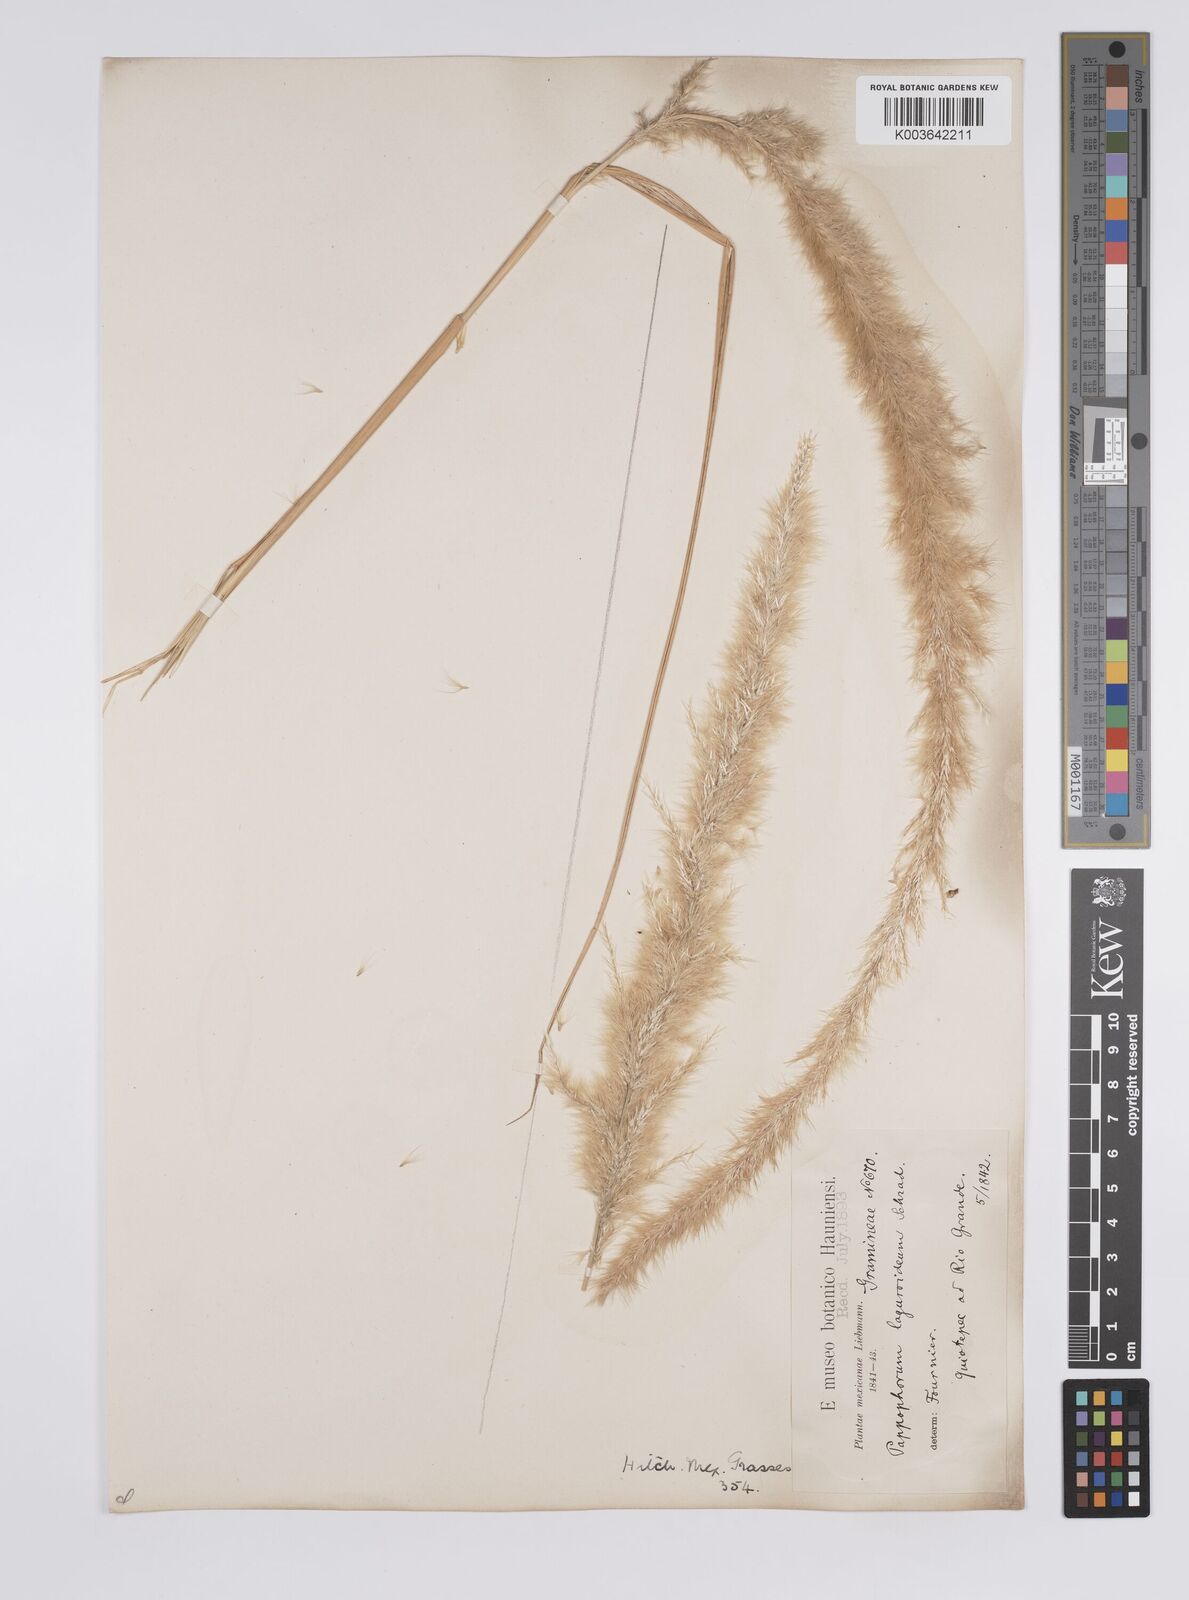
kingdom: Plantae
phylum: Tracheophyta
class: Liliopsida
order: Poales
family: Poaceae
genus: Pappophorum
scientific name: Pappophorum pappiferum
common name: Crabgrass
